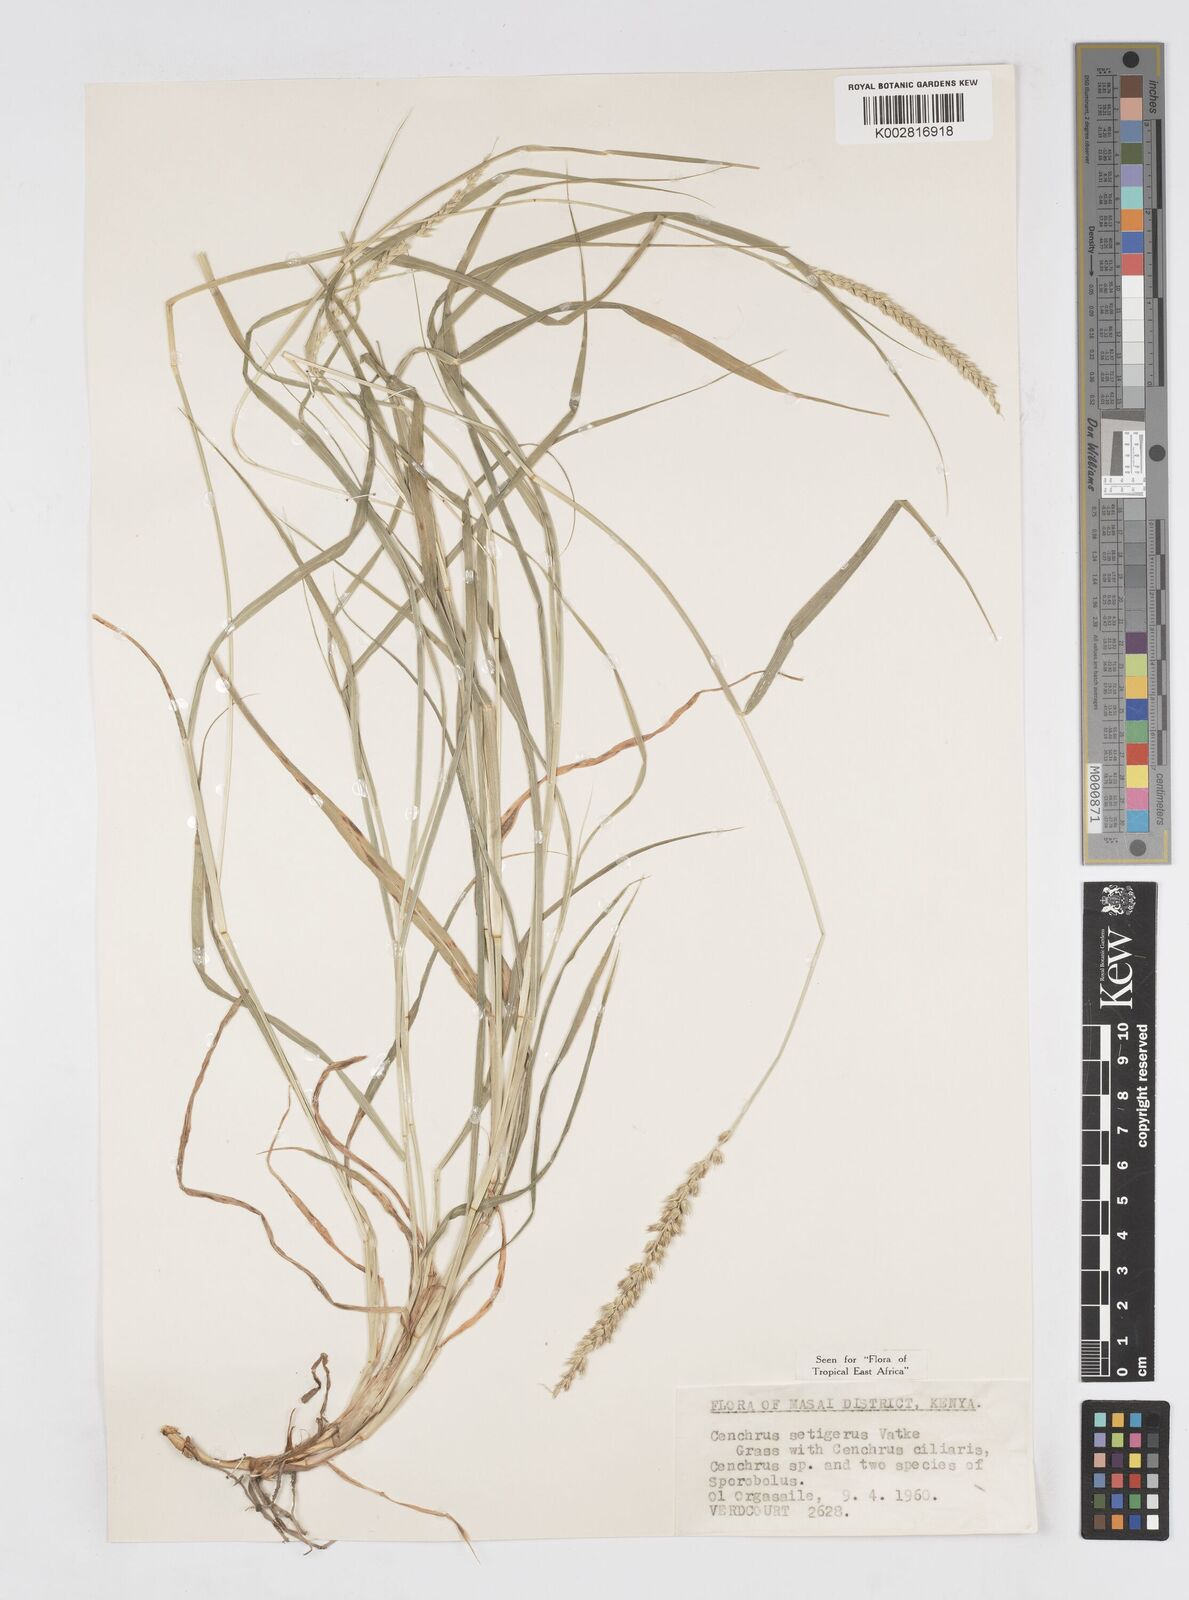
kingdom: Plantae
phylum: Tracheophyta
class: Liliopsida
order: Poales
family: Poaceae
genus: Cenchrus
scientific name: Cenchrus setigerus
